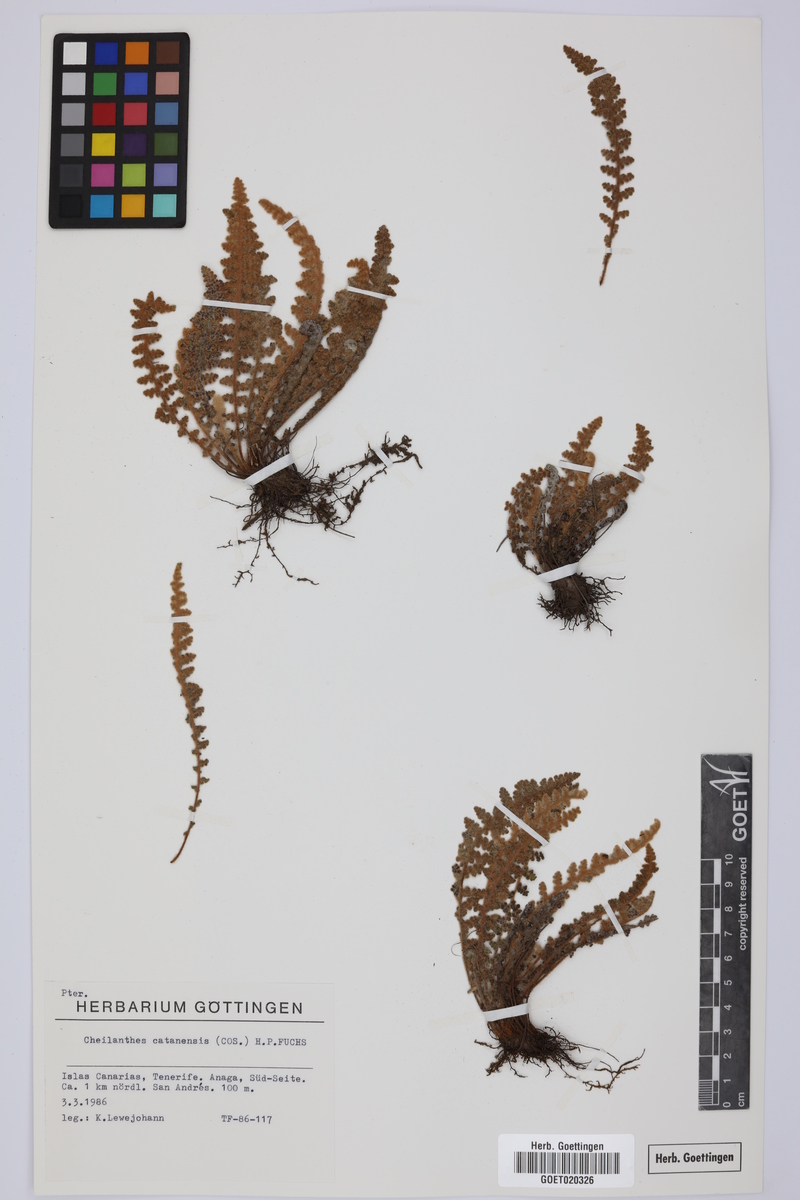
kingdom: Plantae
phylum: Tracheophyta
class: Polypodiopsida
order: Polypodiales
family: Pteridaceae
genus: Cosentinia
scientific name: Cosentinia vellea
